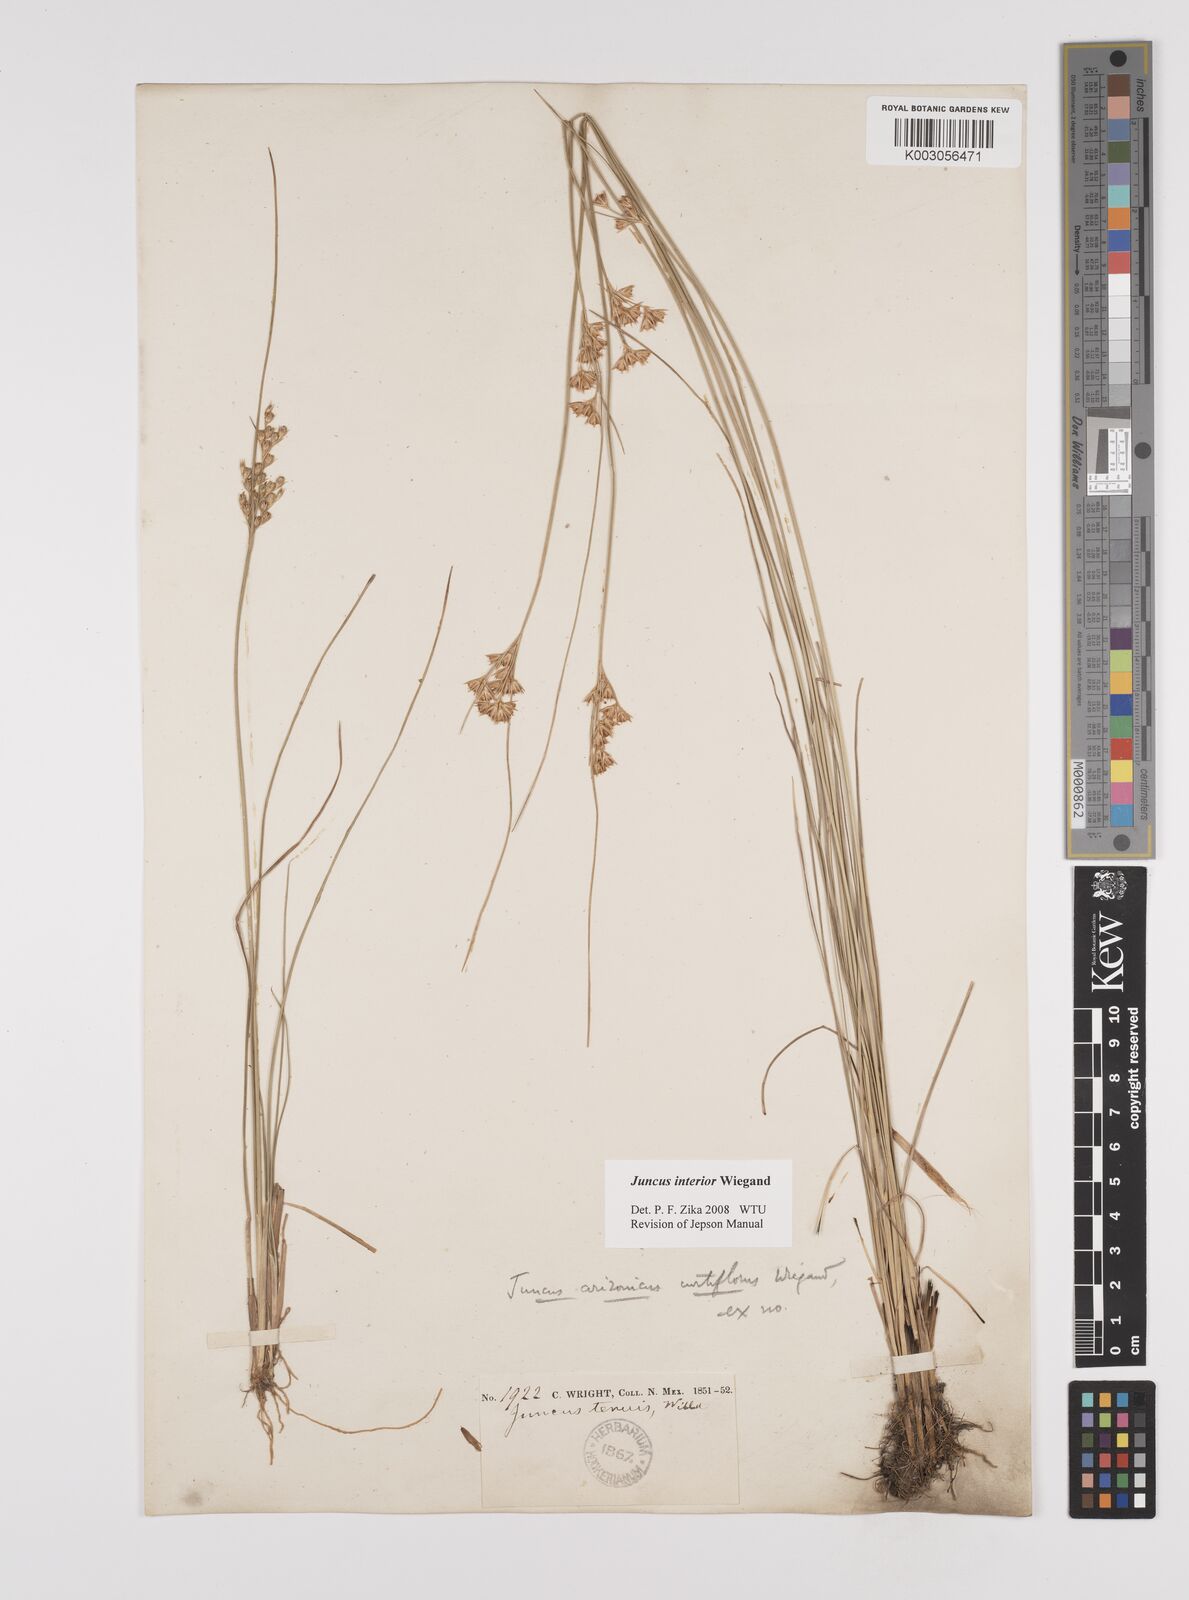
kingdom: Plantae
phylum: Tracheophyta
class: Liliopsida
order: Poales
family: Juncaceae
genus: Juncus
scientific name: Juncus interior
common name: Interior rush
